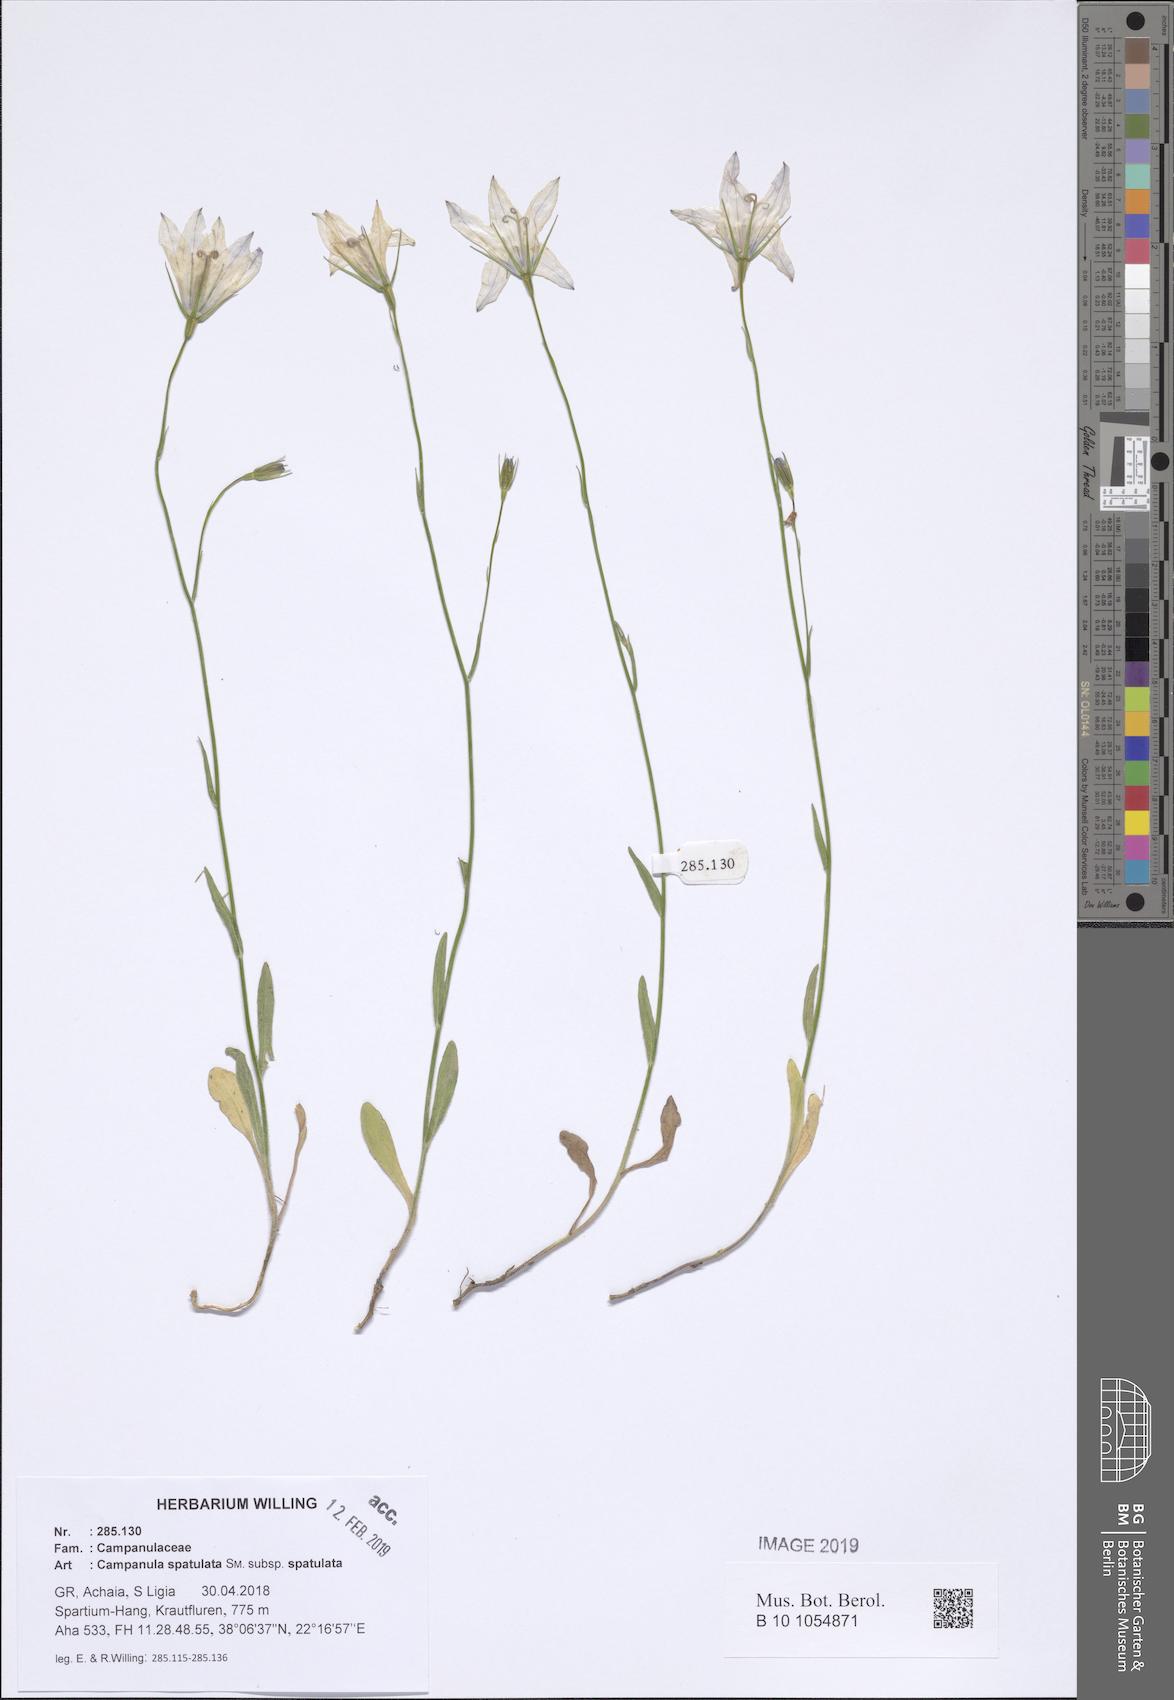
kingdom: Plantae
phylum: Tracheophyta
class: Magnoliopsida
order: Asterales
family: Campanulaceae
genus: Campanula
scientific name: Campanula spatulata
